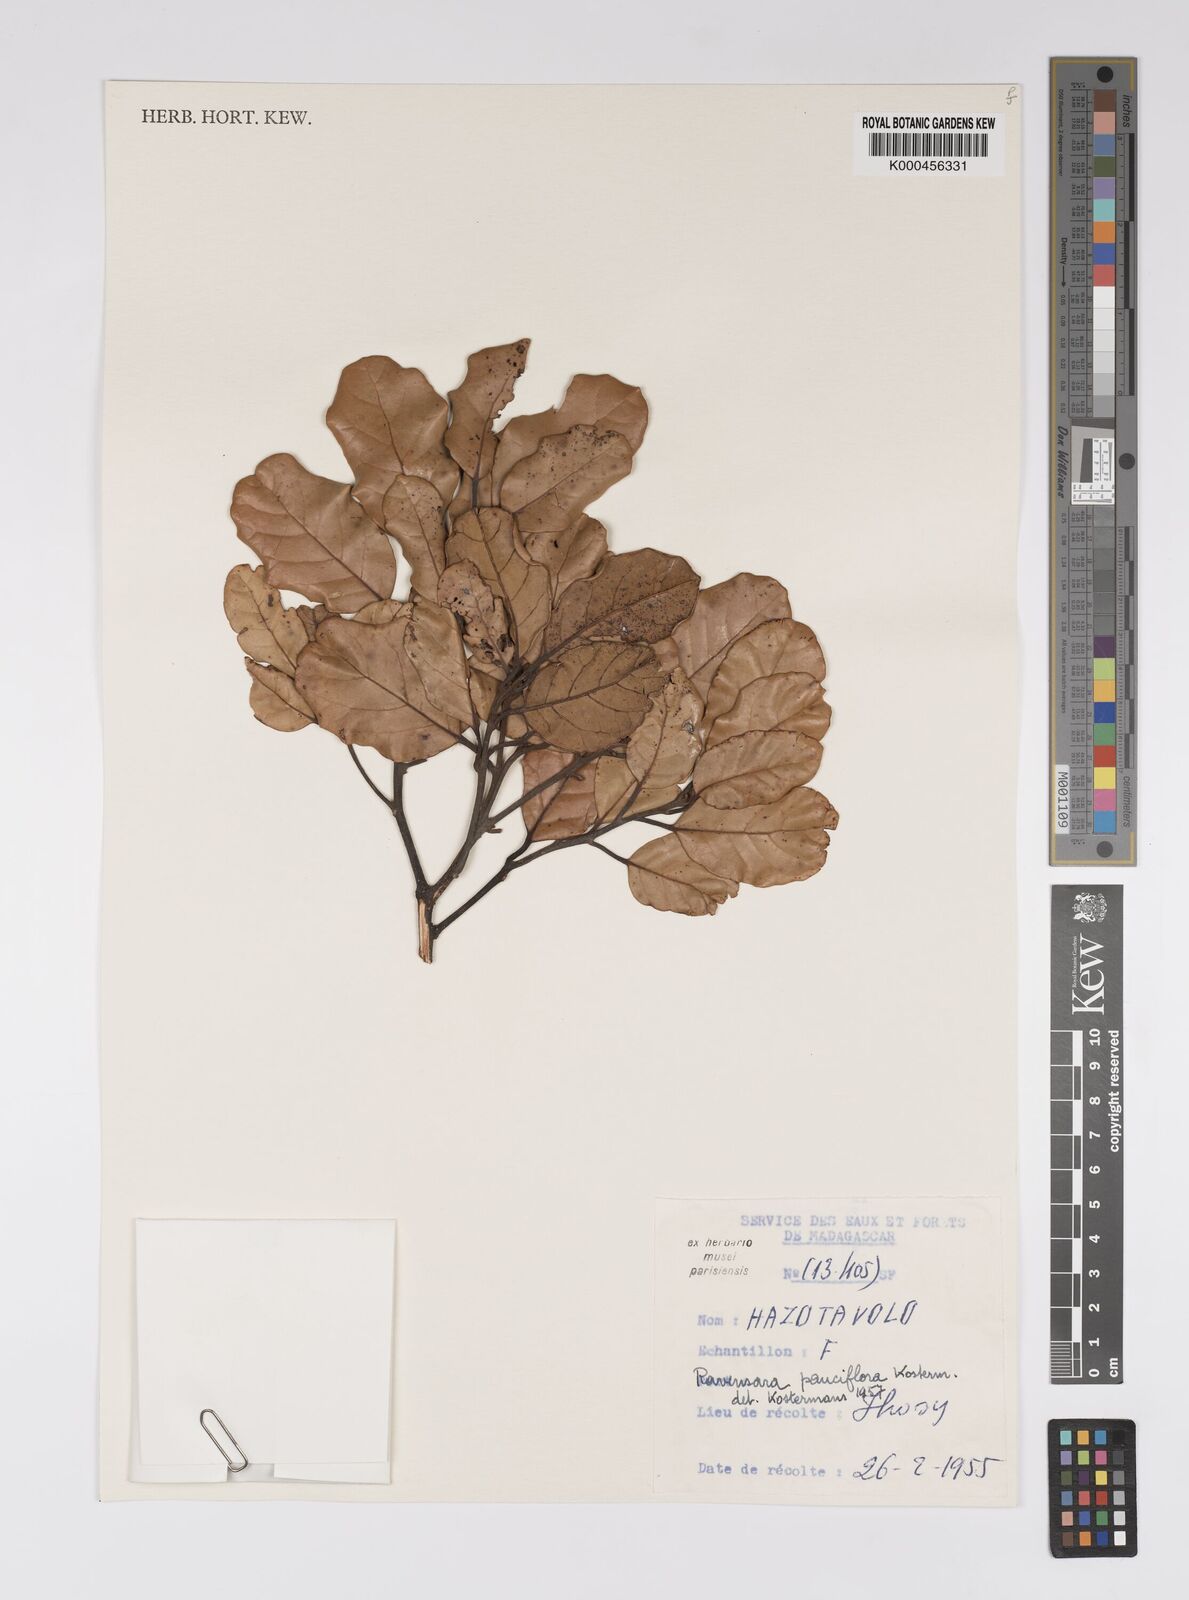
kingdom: Plantae
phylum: Tracheophyta
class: Magnoliopsida
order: Laurales
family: Lauraceae
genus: Cryptocarya
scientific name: Cryptocarya pauciflora
